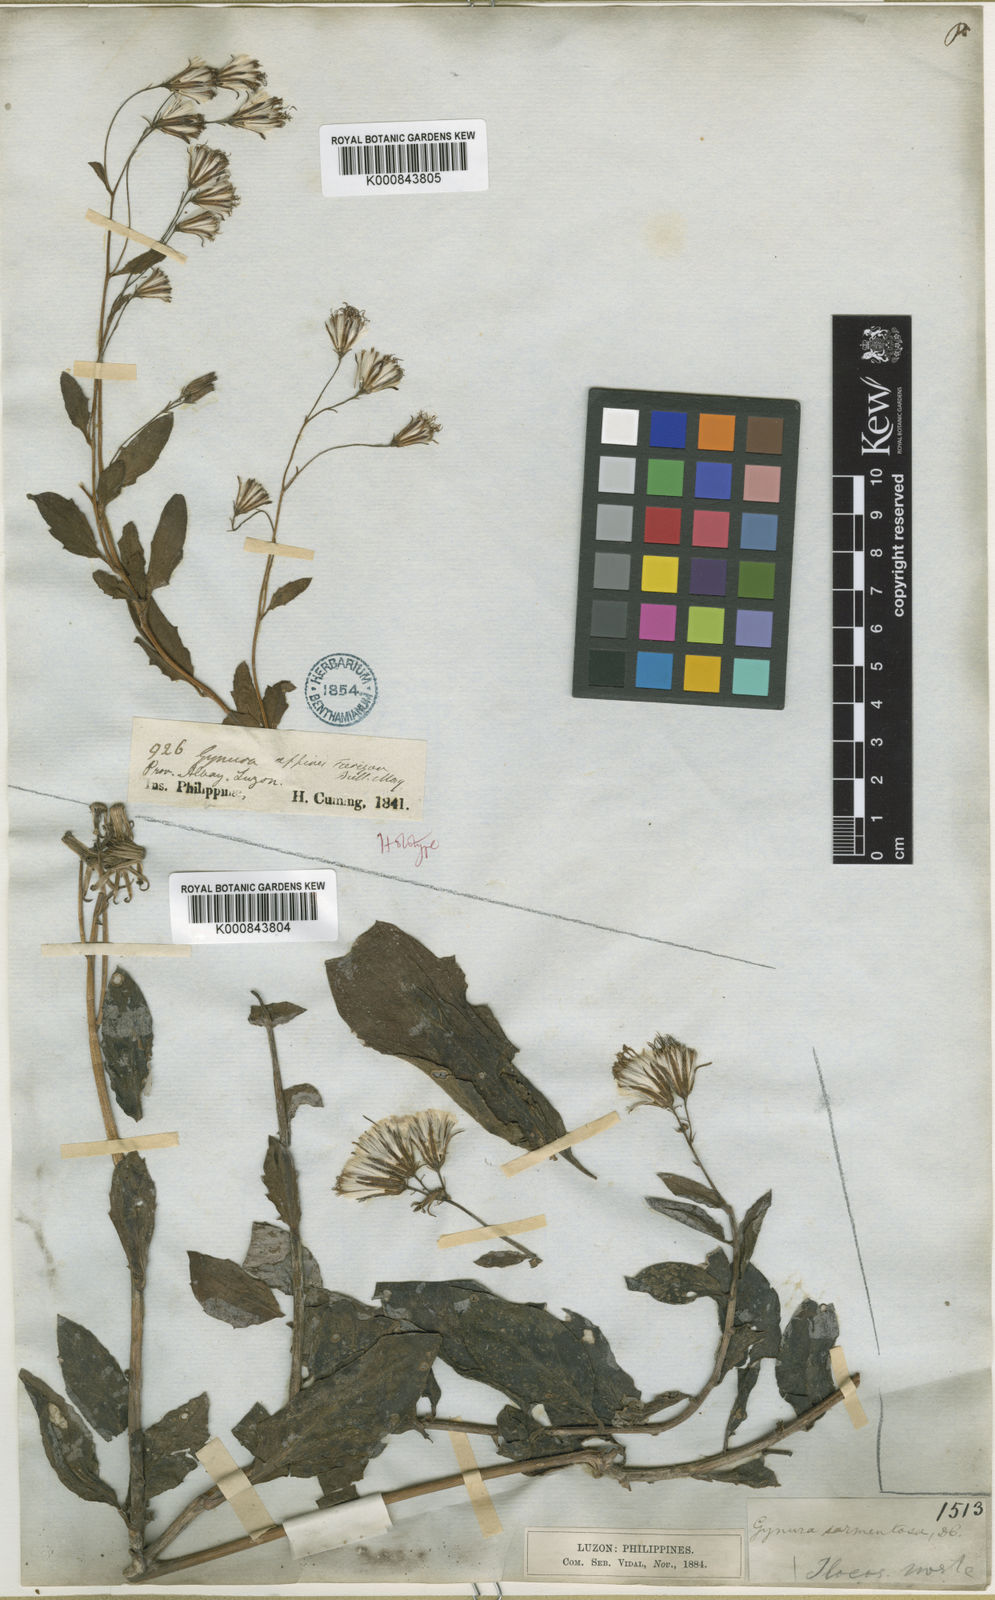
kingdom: Plantae
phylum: Tracheophyta
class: Magnoliopsida
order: Asterales
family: Asteraceae
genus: Gynura
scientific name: Gynura procumbens
